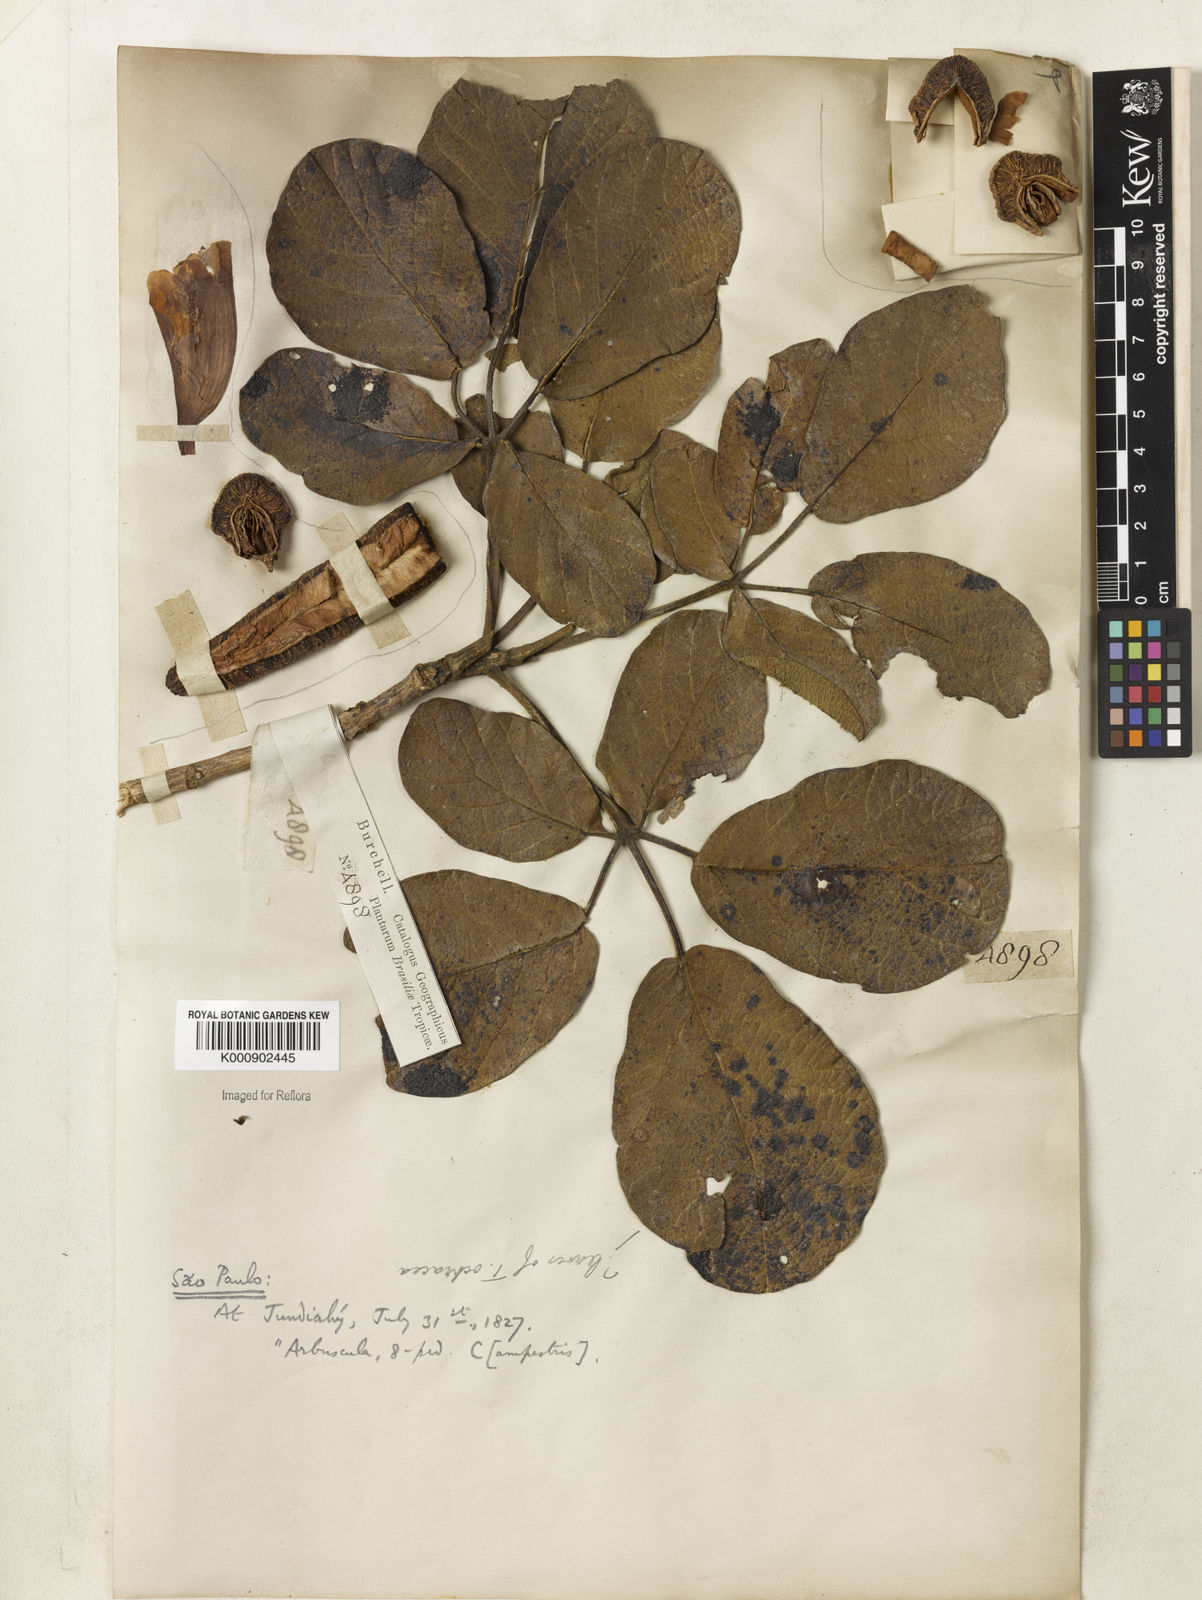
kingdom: Plantae
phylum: Tracheophyta
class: Magnoliopsida
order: Lamiales
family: Bignoniaceae
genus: Handroanthus
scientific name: Handroanthus ochraceus
